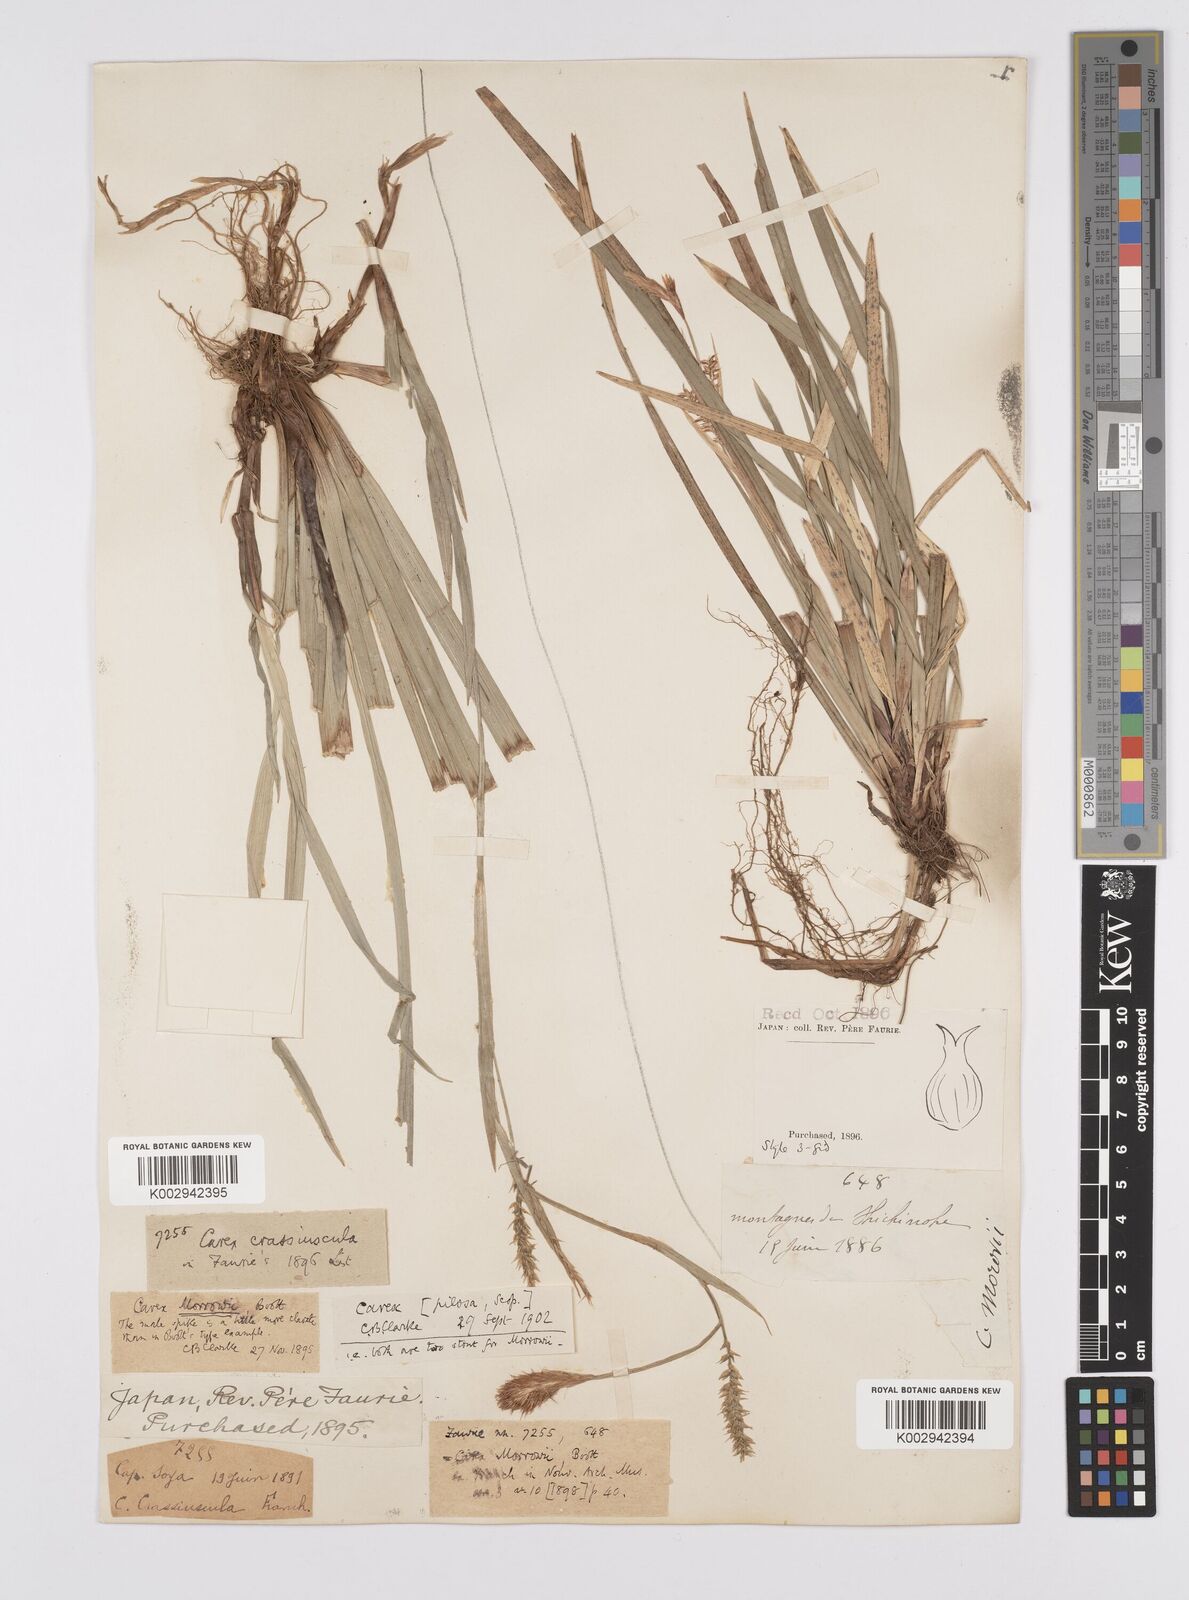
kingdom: Plantae
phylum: Tracheophyta
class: Liliopsida
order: Poales
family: Cyperaceae
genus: Carex
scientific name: Carex pilosa
